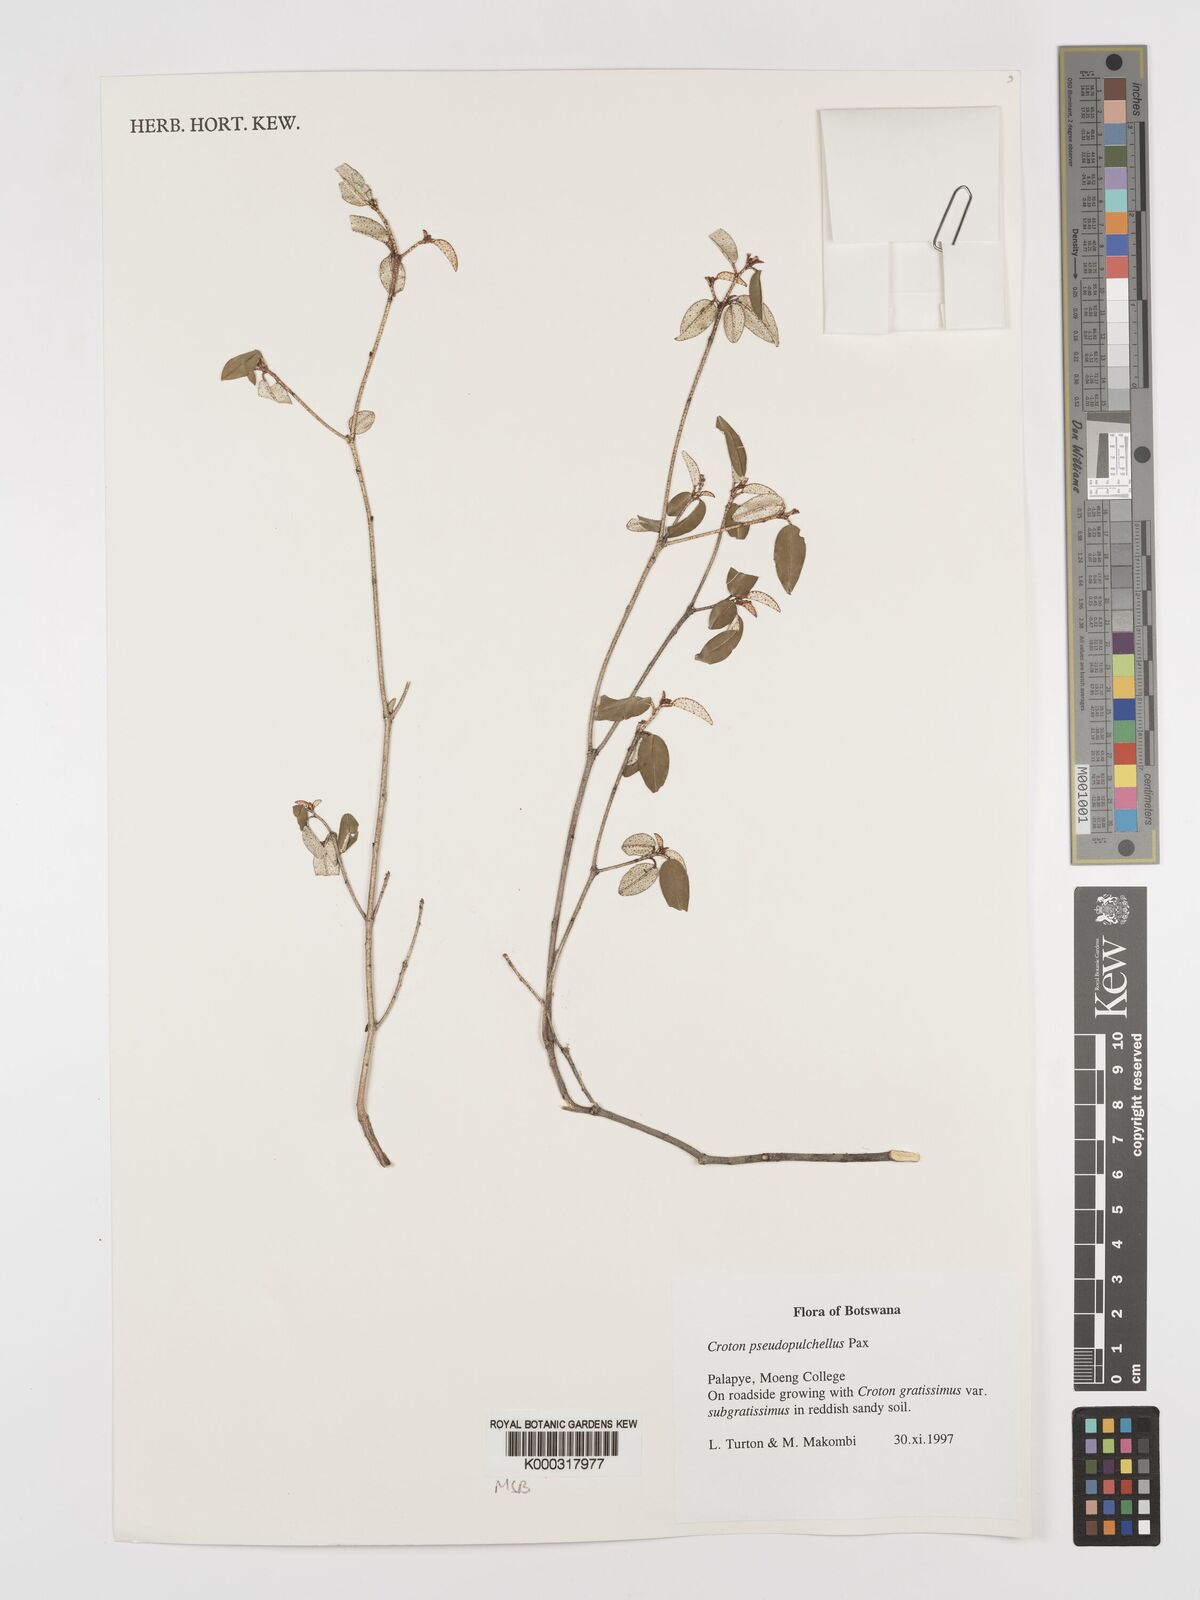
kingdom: Plantae
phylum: Tracheophyta
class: Magnoliopsida
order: Malpighiales
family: Euphorbiaceae
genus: Croton
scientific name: Croton pseudopulchellus
